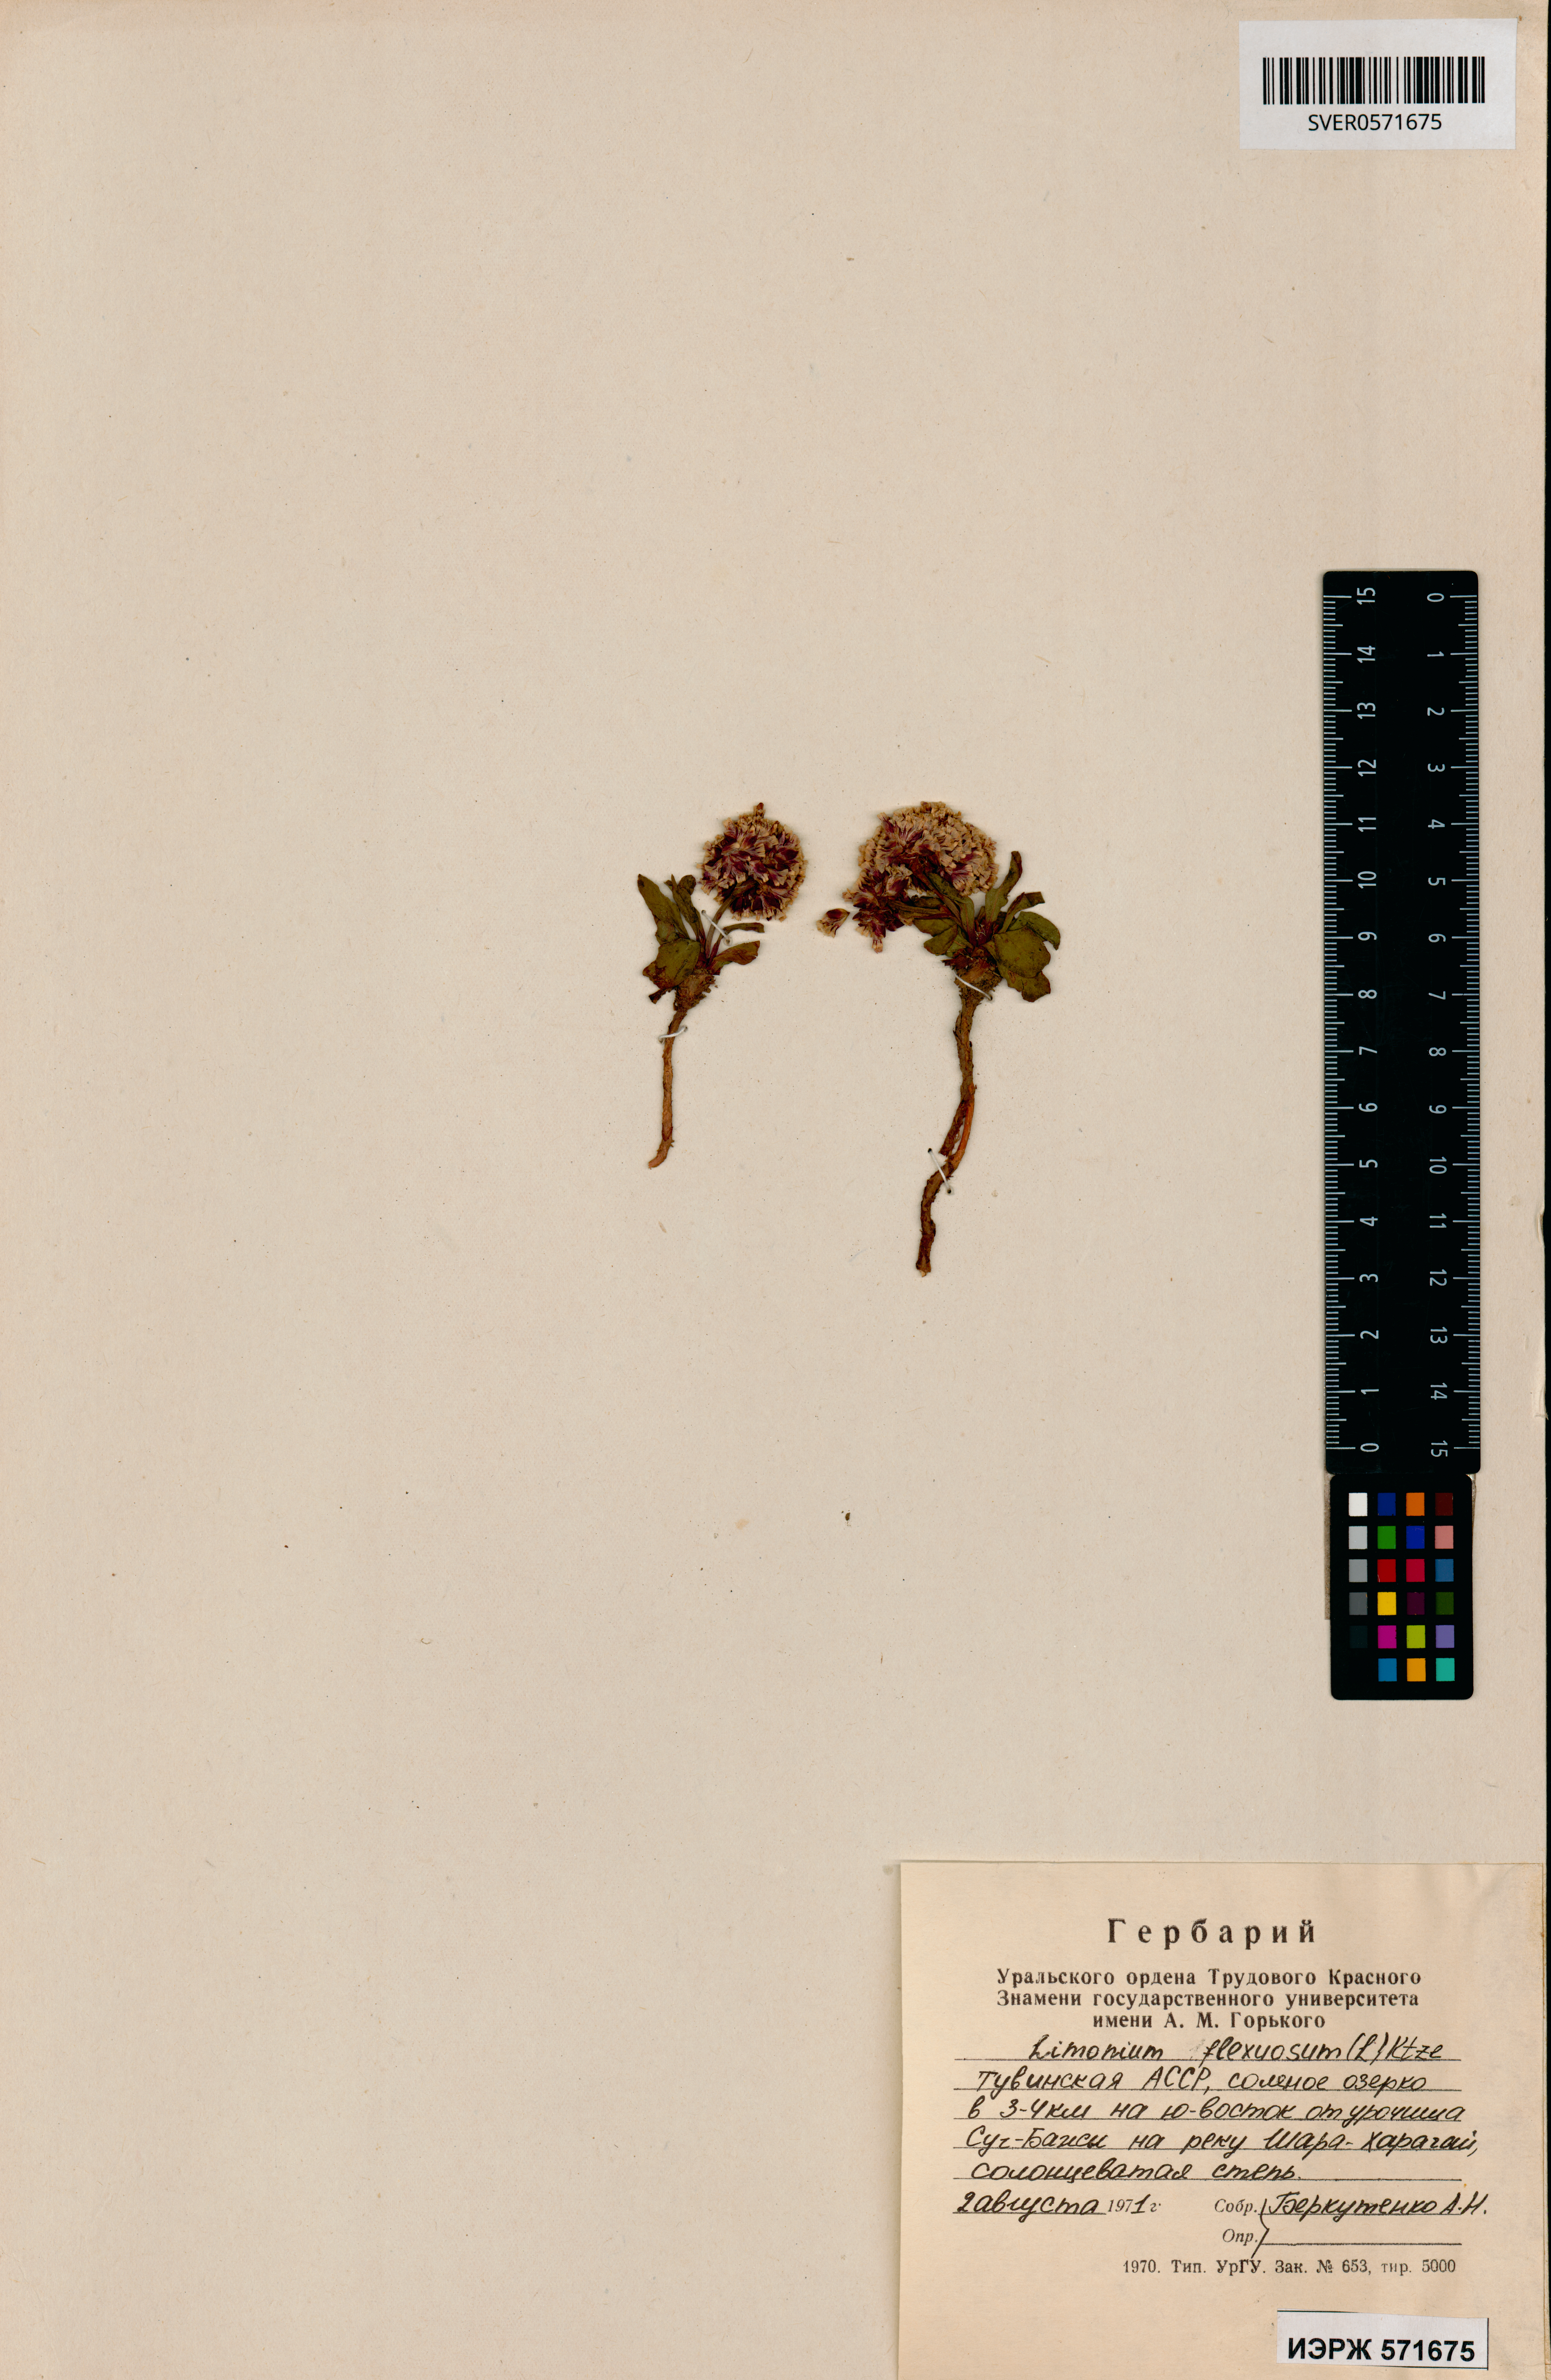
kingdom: Plantae
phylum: Tracheophyta
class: Magnoliopsida
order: Caryophyllales
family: Plumbaginaceae
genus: Limonium
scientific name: Limonium flexuosum
